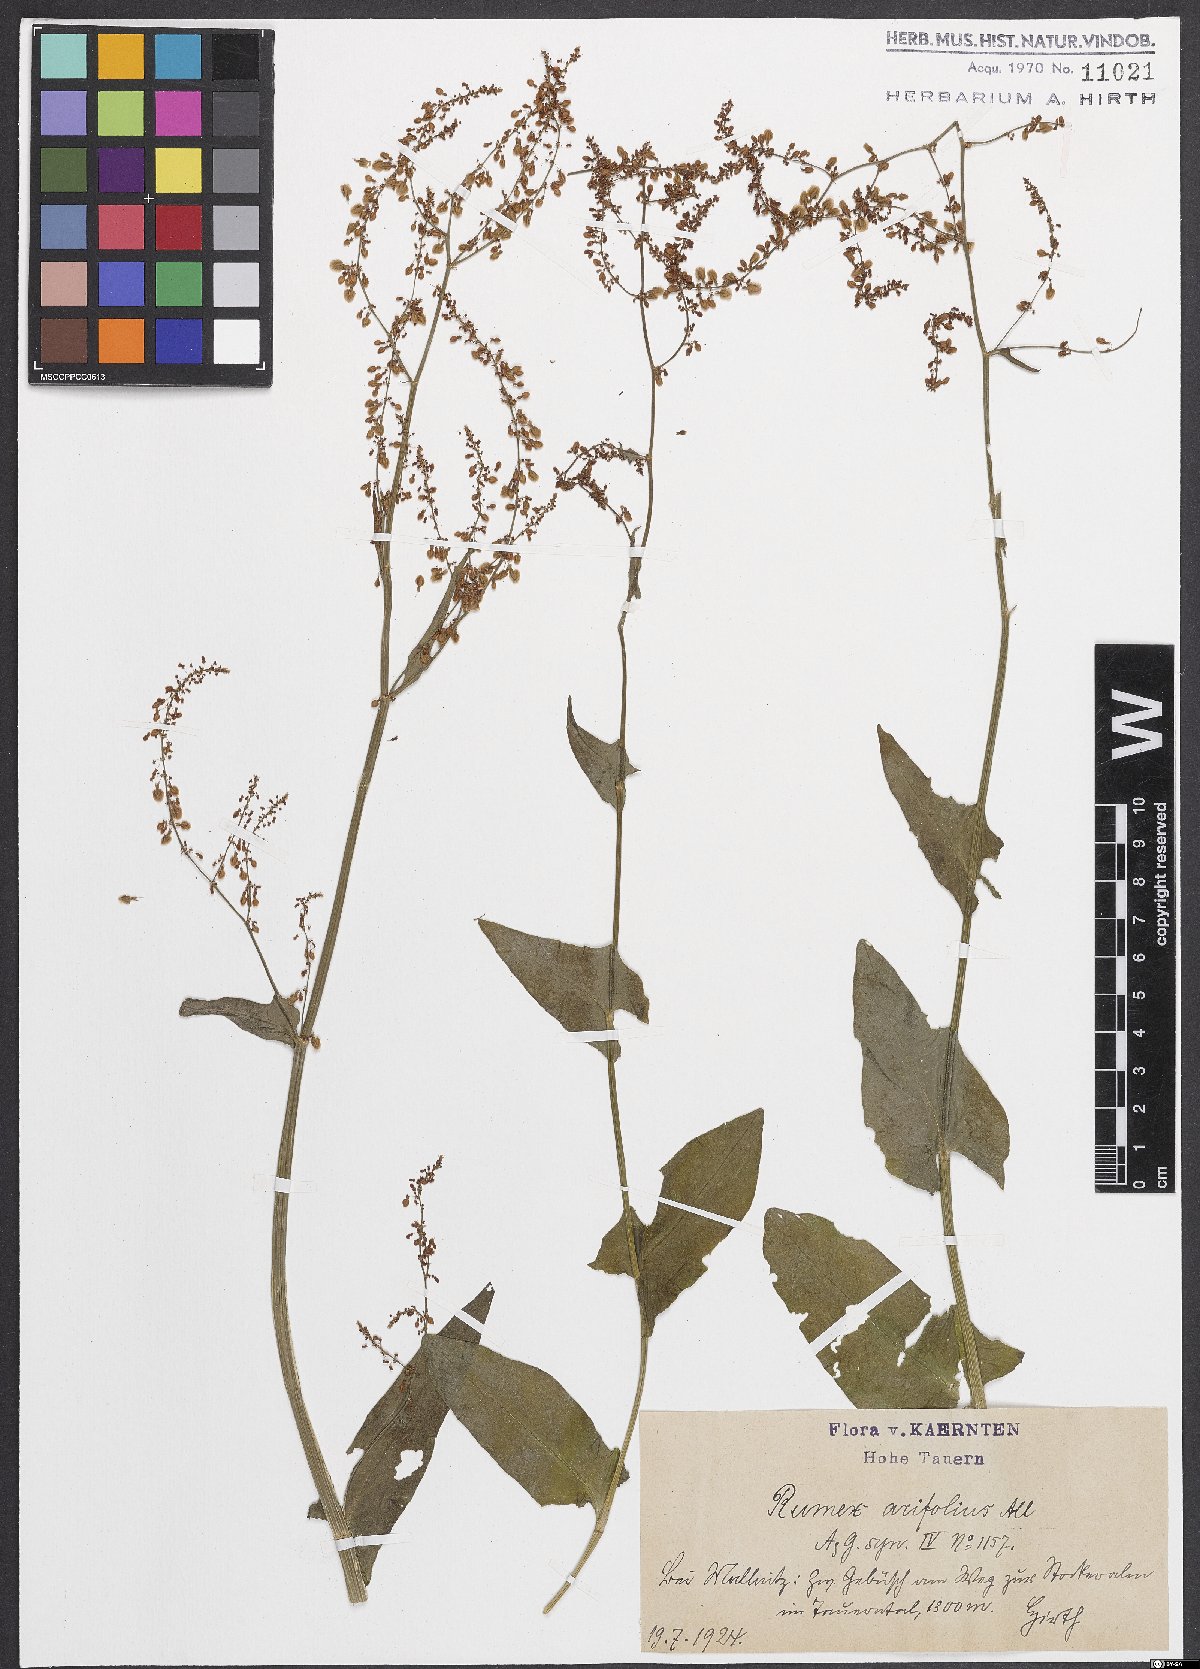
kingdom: Plantae
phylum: Tracheophyta
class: Magnoliopsida
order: Caryophyllales
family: Polygonaceae
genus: Rumex
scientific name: Rumex arifolius
